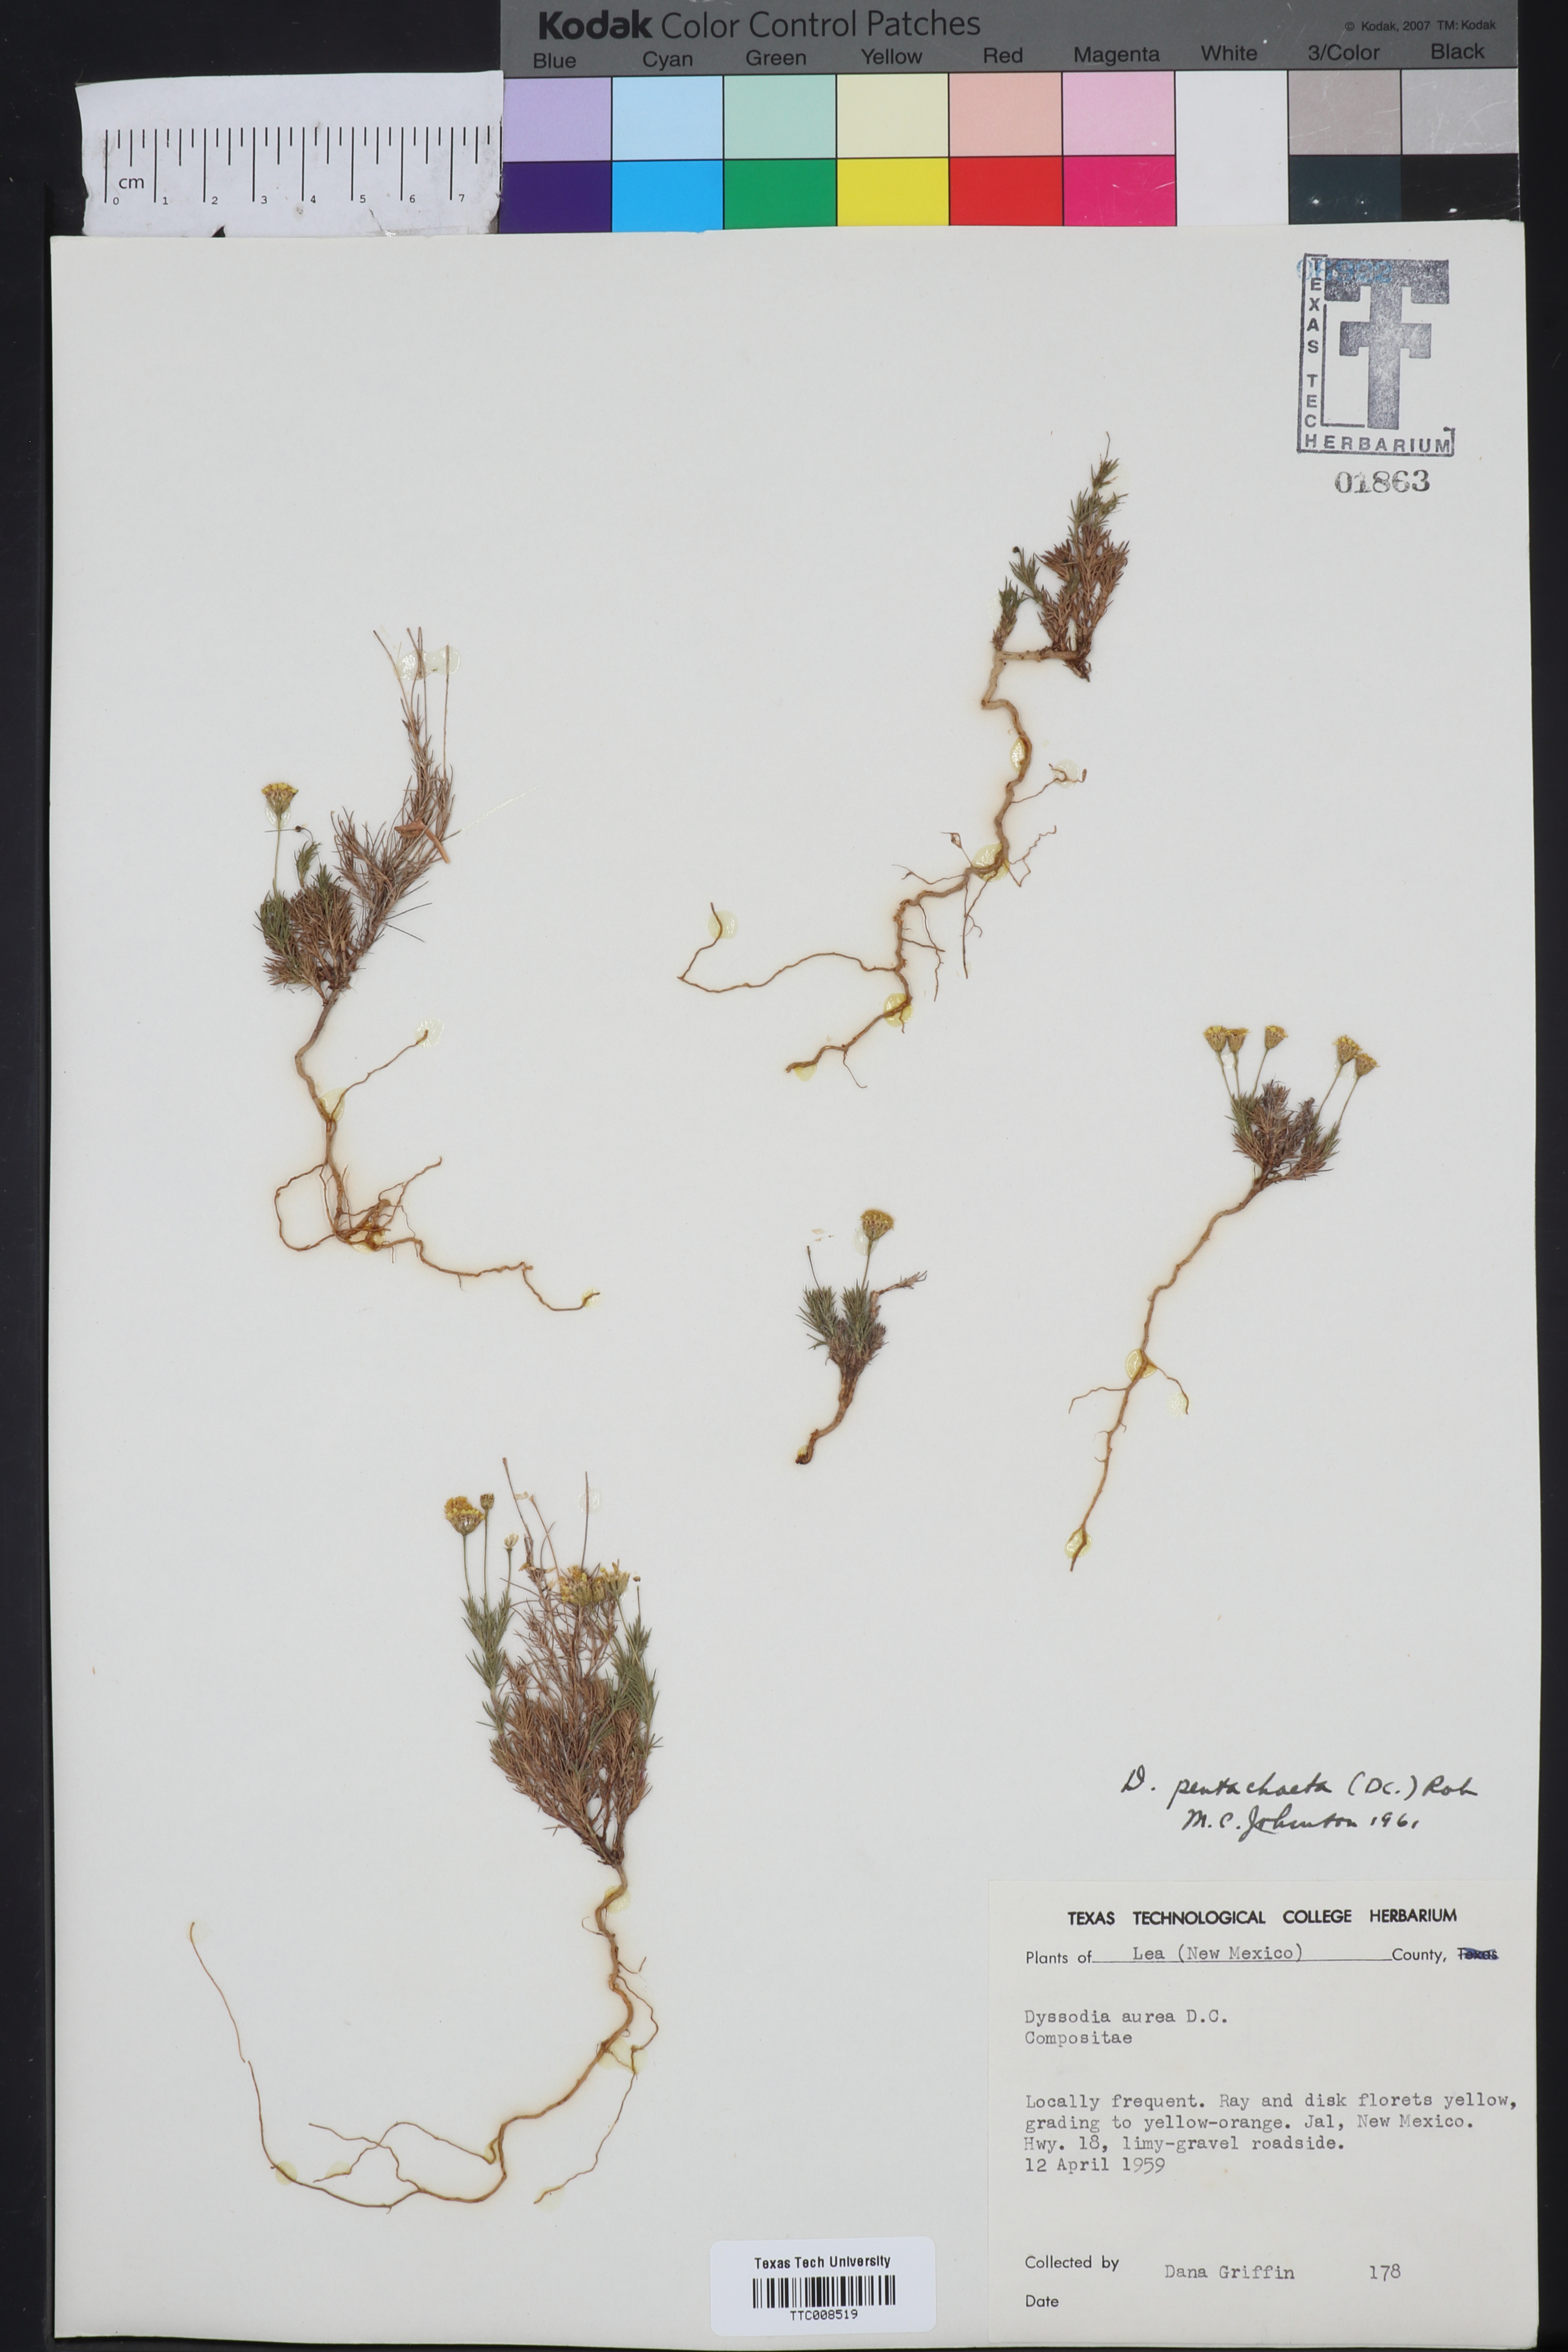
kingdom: Plantae
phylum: Tracheophyta
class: Magnoliopsida
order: Asterales
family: Asteraceae
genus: Thymophylla
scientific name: Thymophylla pentachaeta
